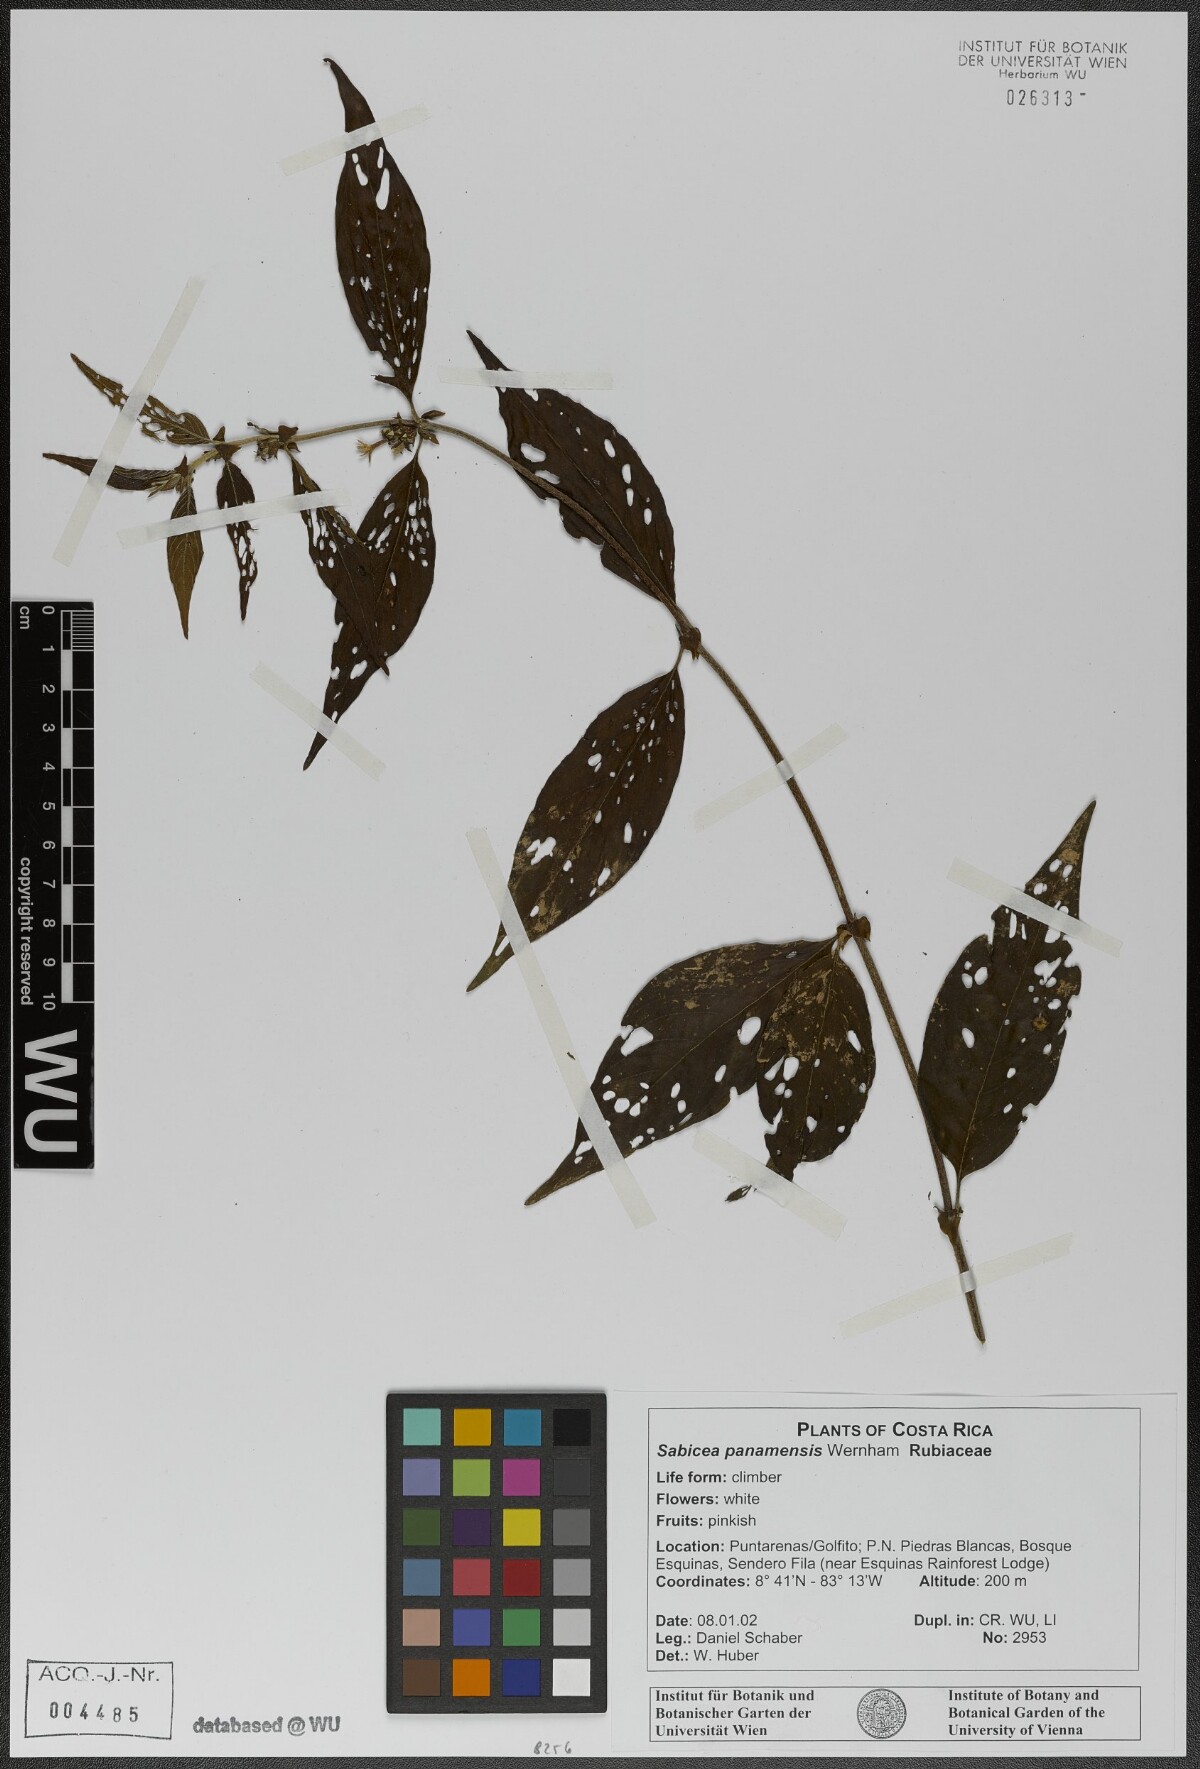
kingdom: Plantae
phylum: Tracheophyta
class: Magnoliopsida
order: Gentianales
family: Rubiaceae
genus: Sabicea
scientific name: Sabicea panamensis
